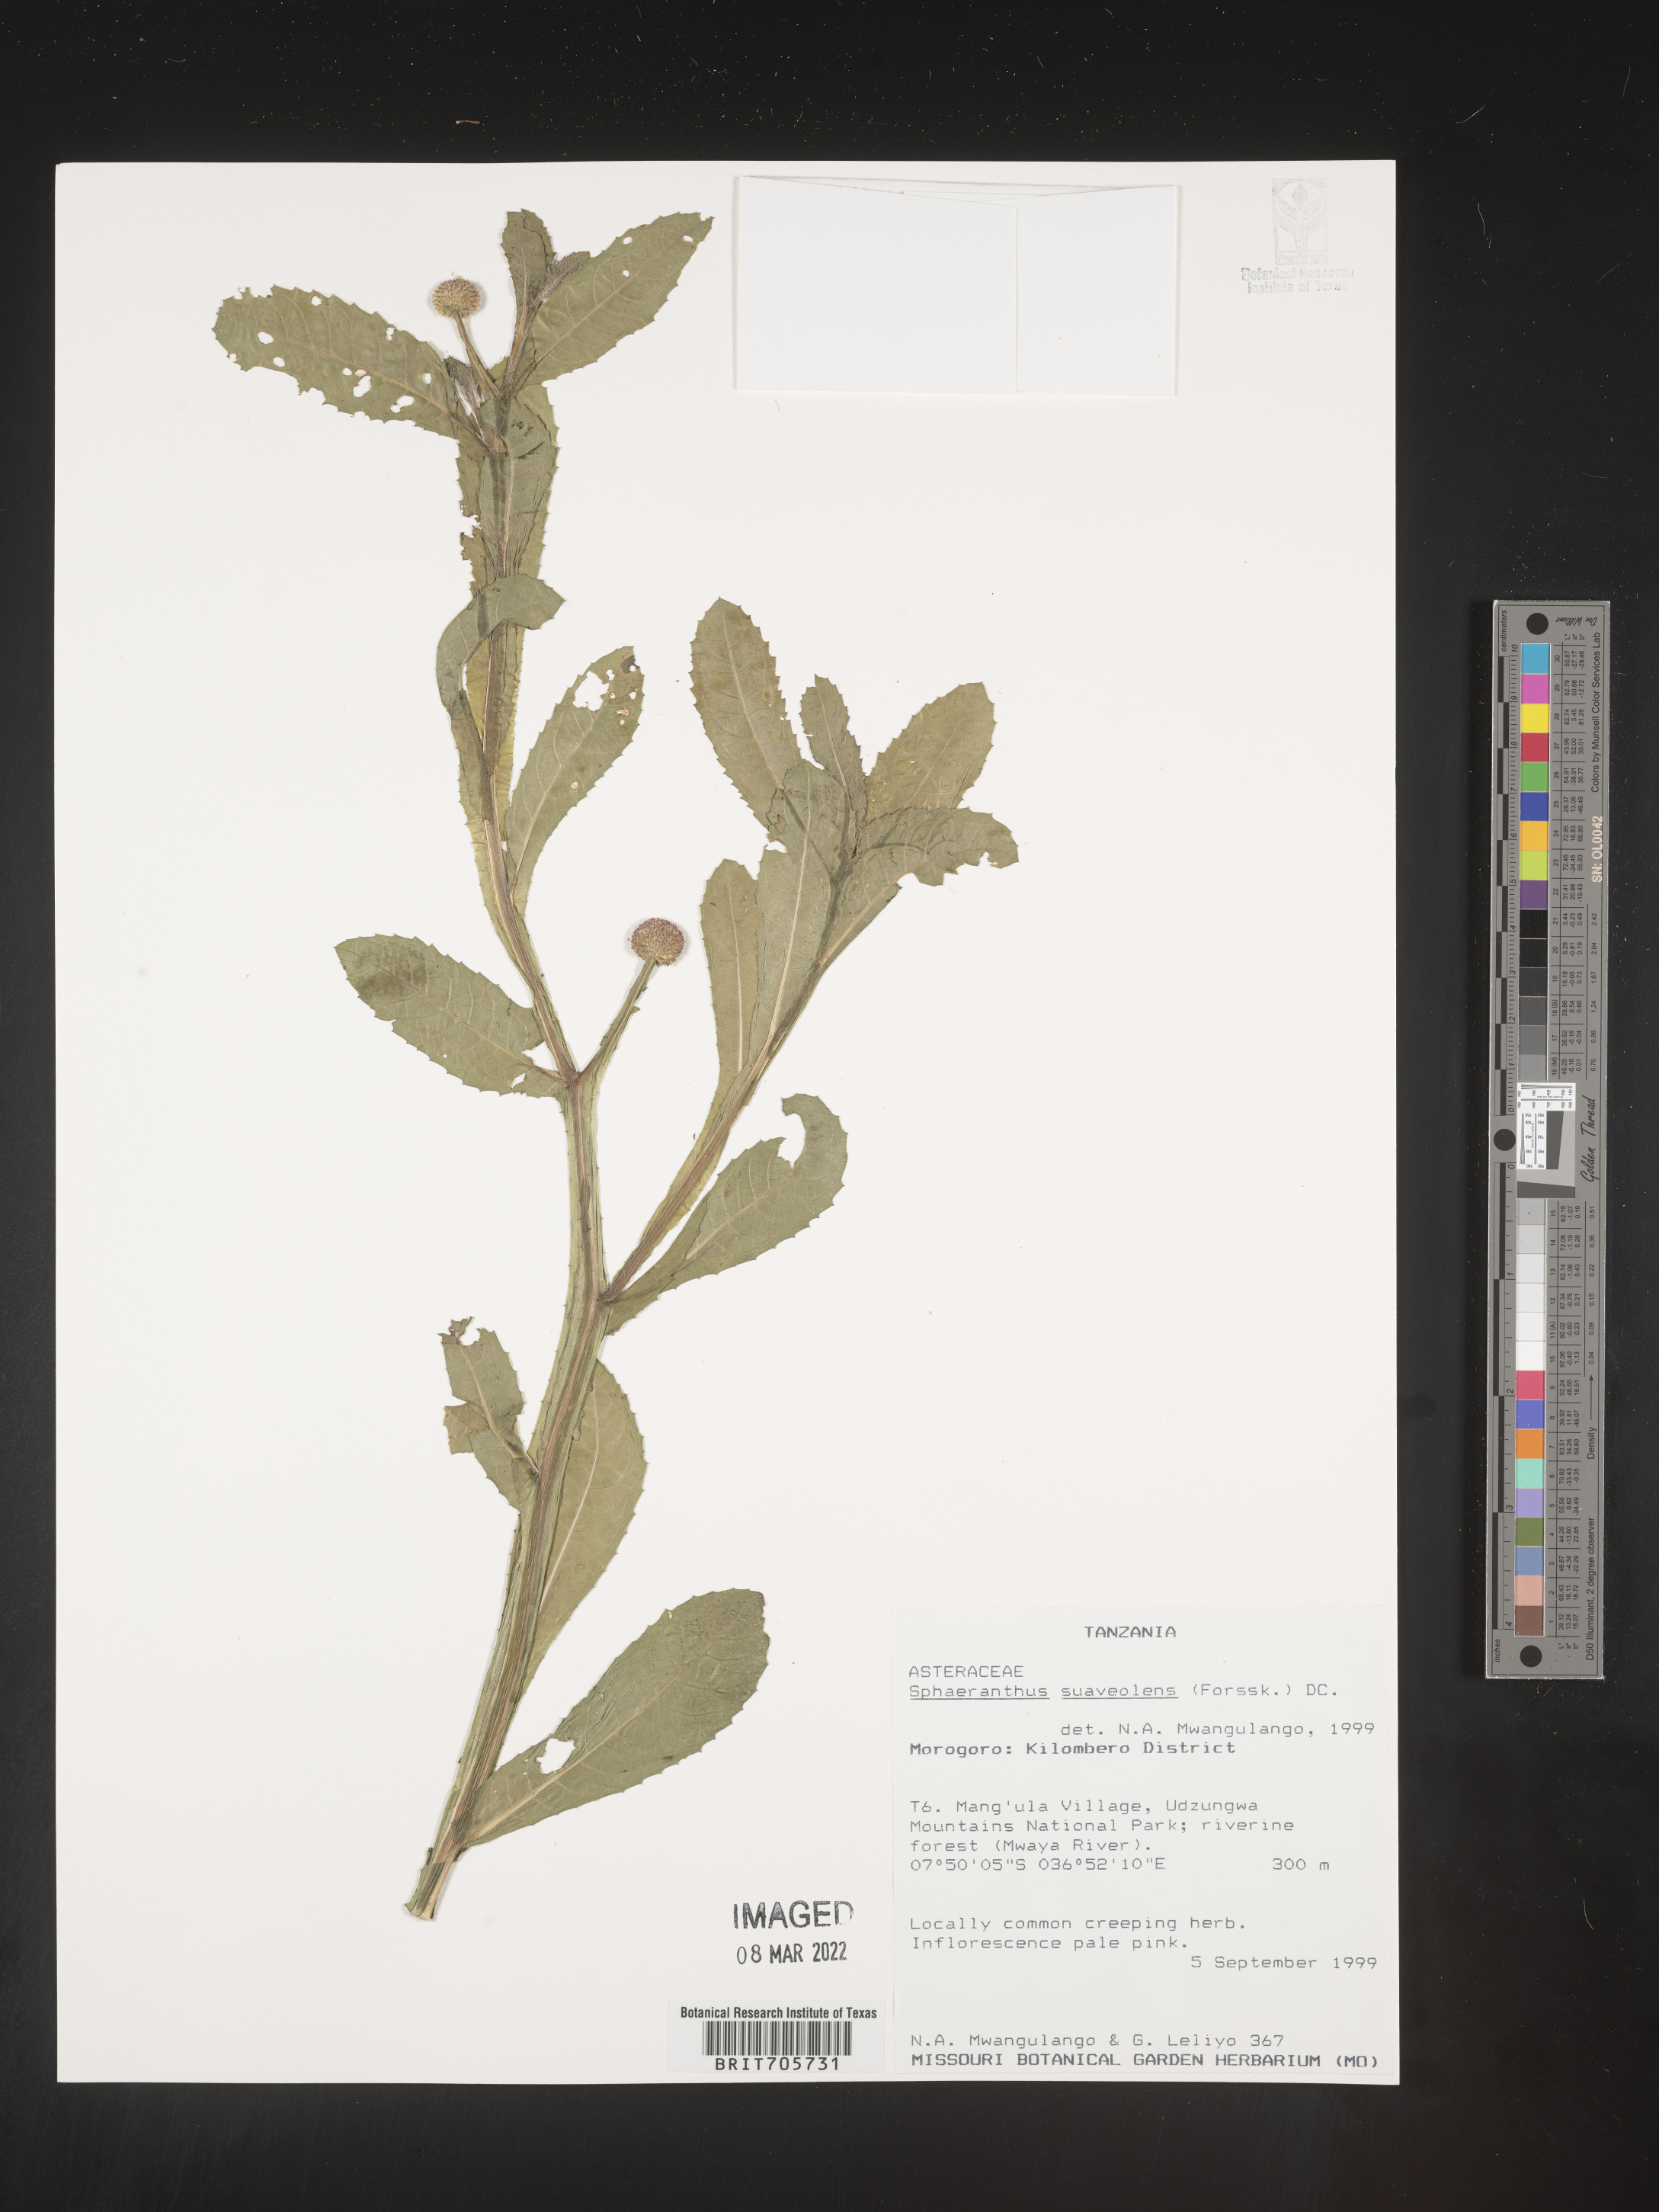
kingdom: Plantae
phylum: Tracheophyta
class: Magnoliopsida
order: Asterales
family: Asteraceae
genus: Sphaeranthus
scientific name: Sphaeranthus
